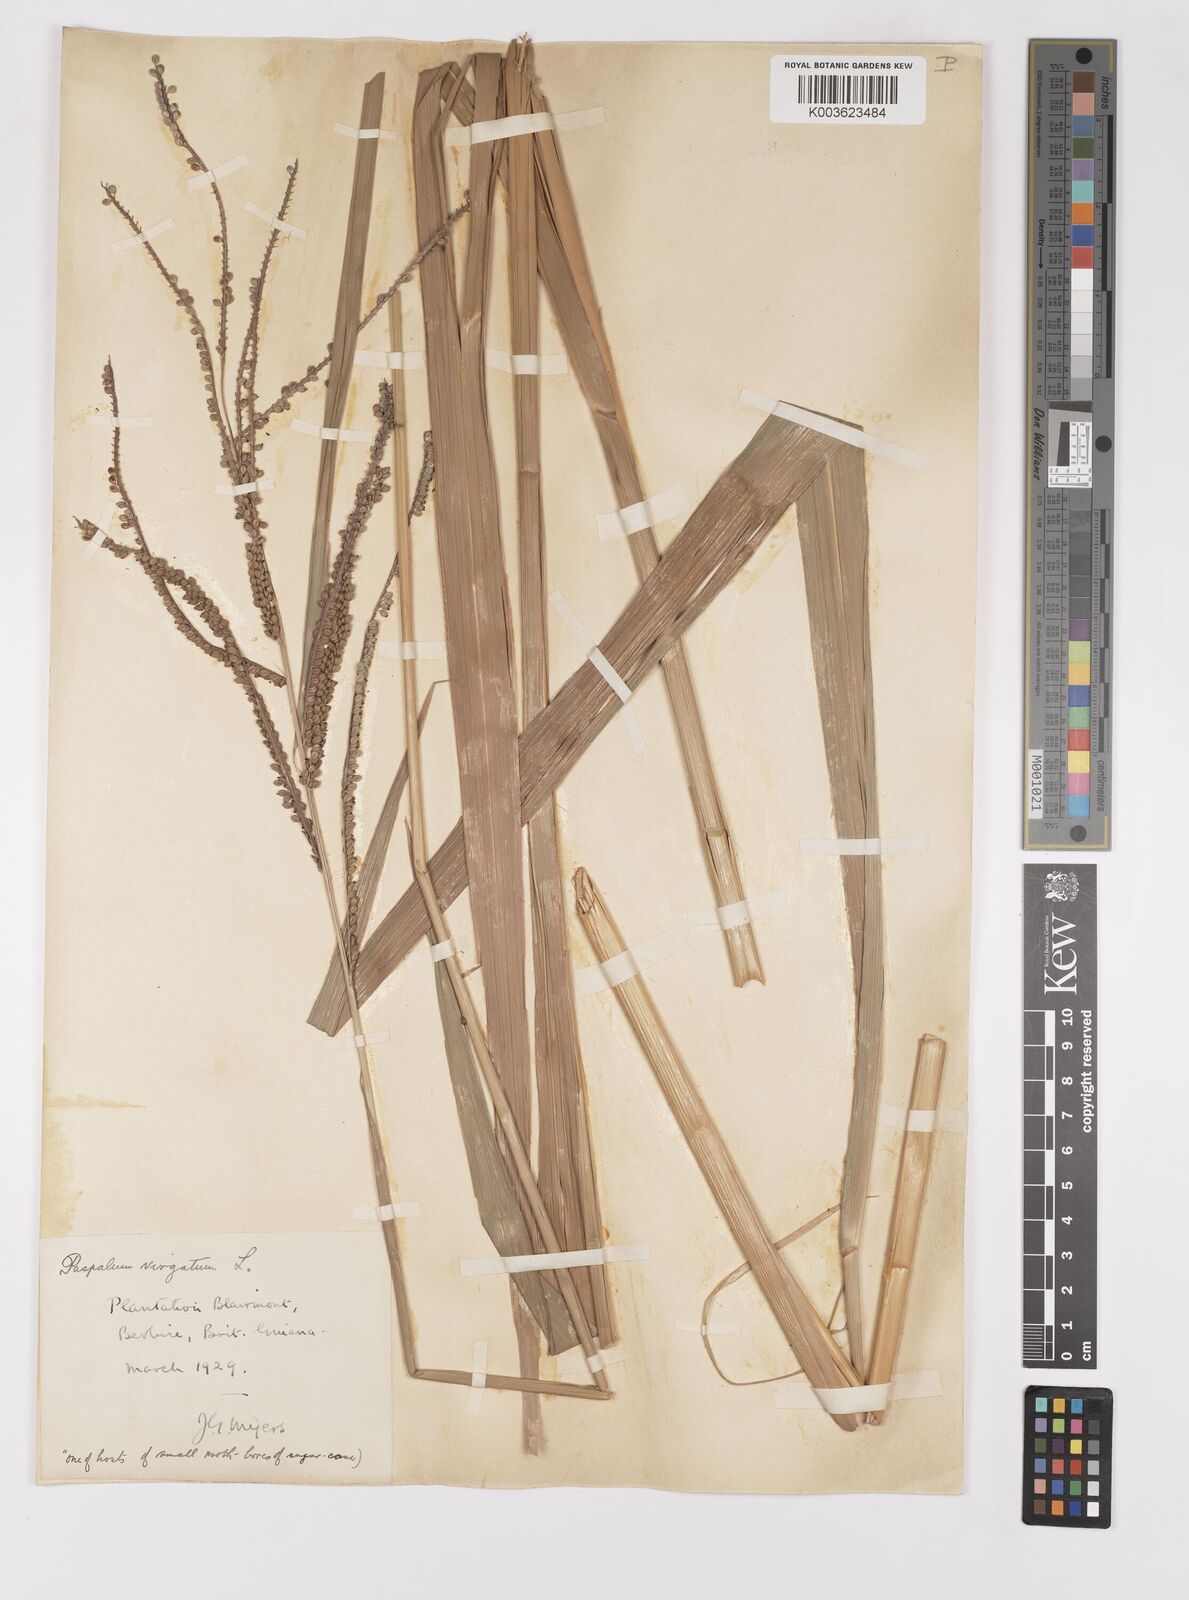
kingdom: Plantae
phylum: Tracheophyta
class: Liliopsida
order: Poales
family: Poaceae
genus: Paspalum
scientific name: Paspalum virgatum
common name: Talquezal
